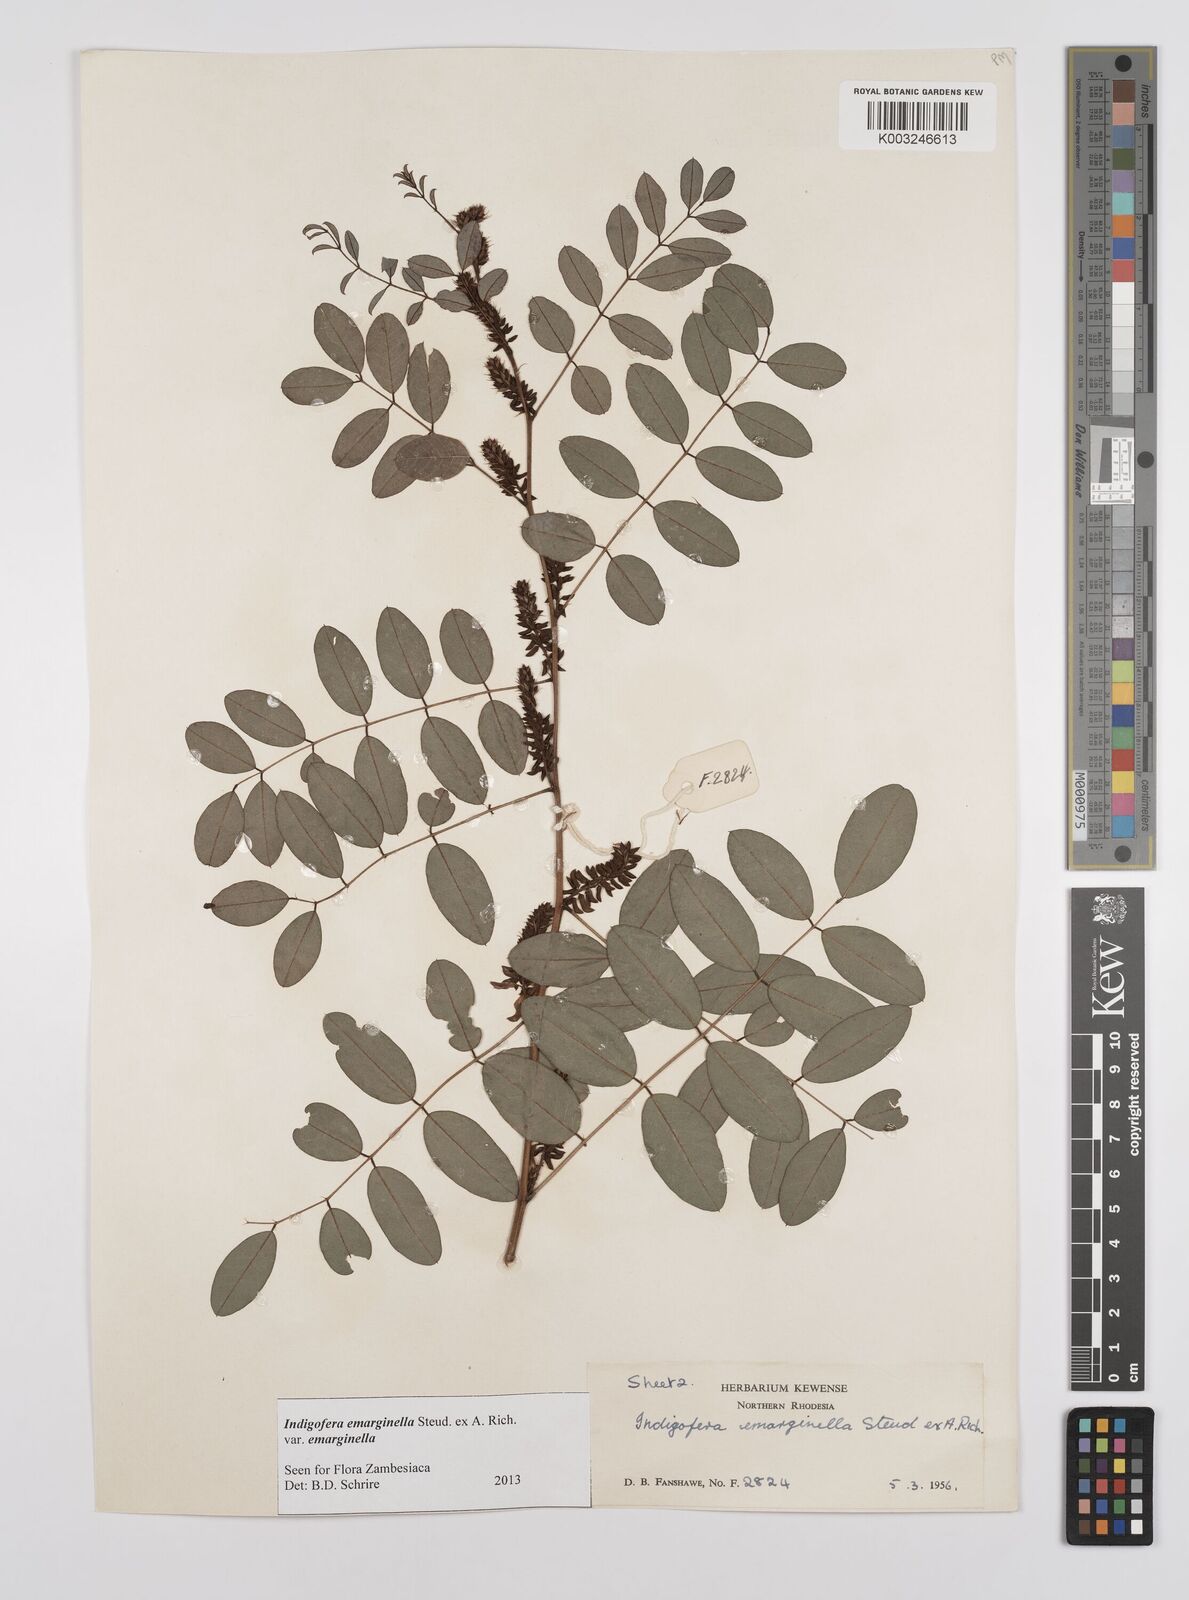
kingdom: Plantae
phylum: Tracheophyta
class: Magnoliopsida
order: Fabales
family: Fabaceae
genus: Indigofera
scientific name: Indigofera emarginella
